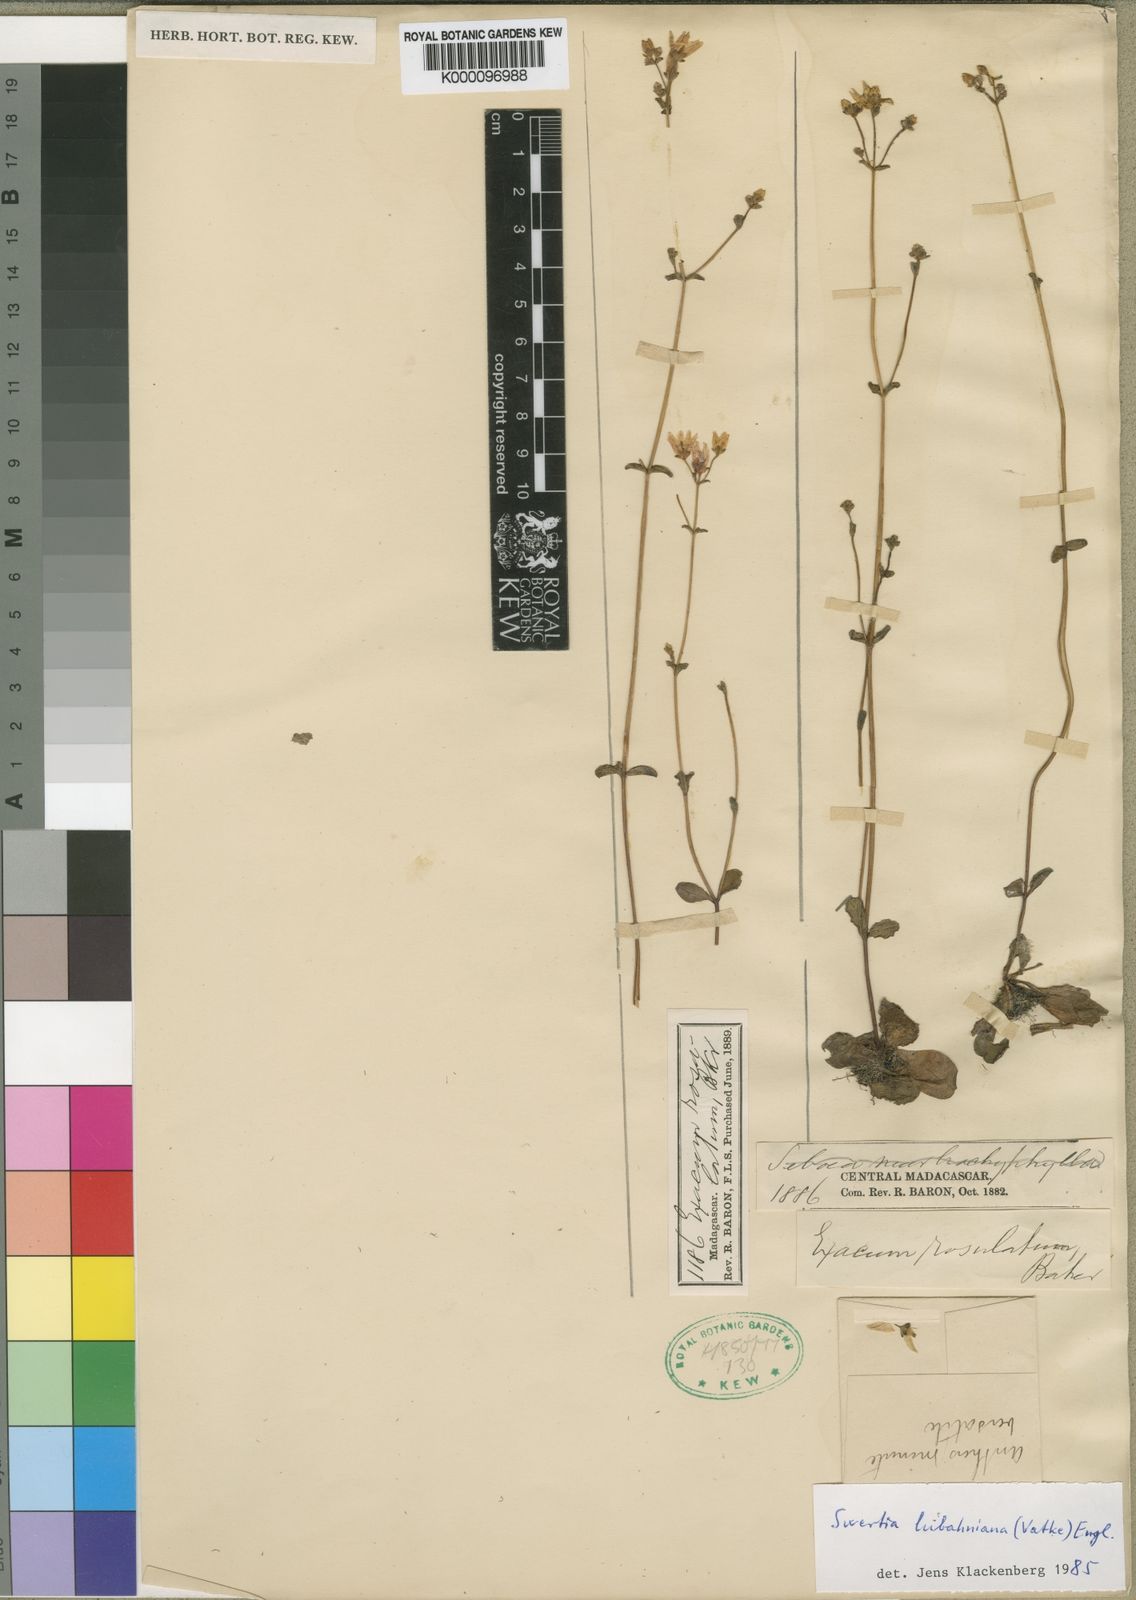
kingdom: Plantae
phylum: Tracheophyta
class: Magnoliopsida
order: Gentianales
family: Gentianaceae
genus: Swertia
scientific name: Swertia rosulata
